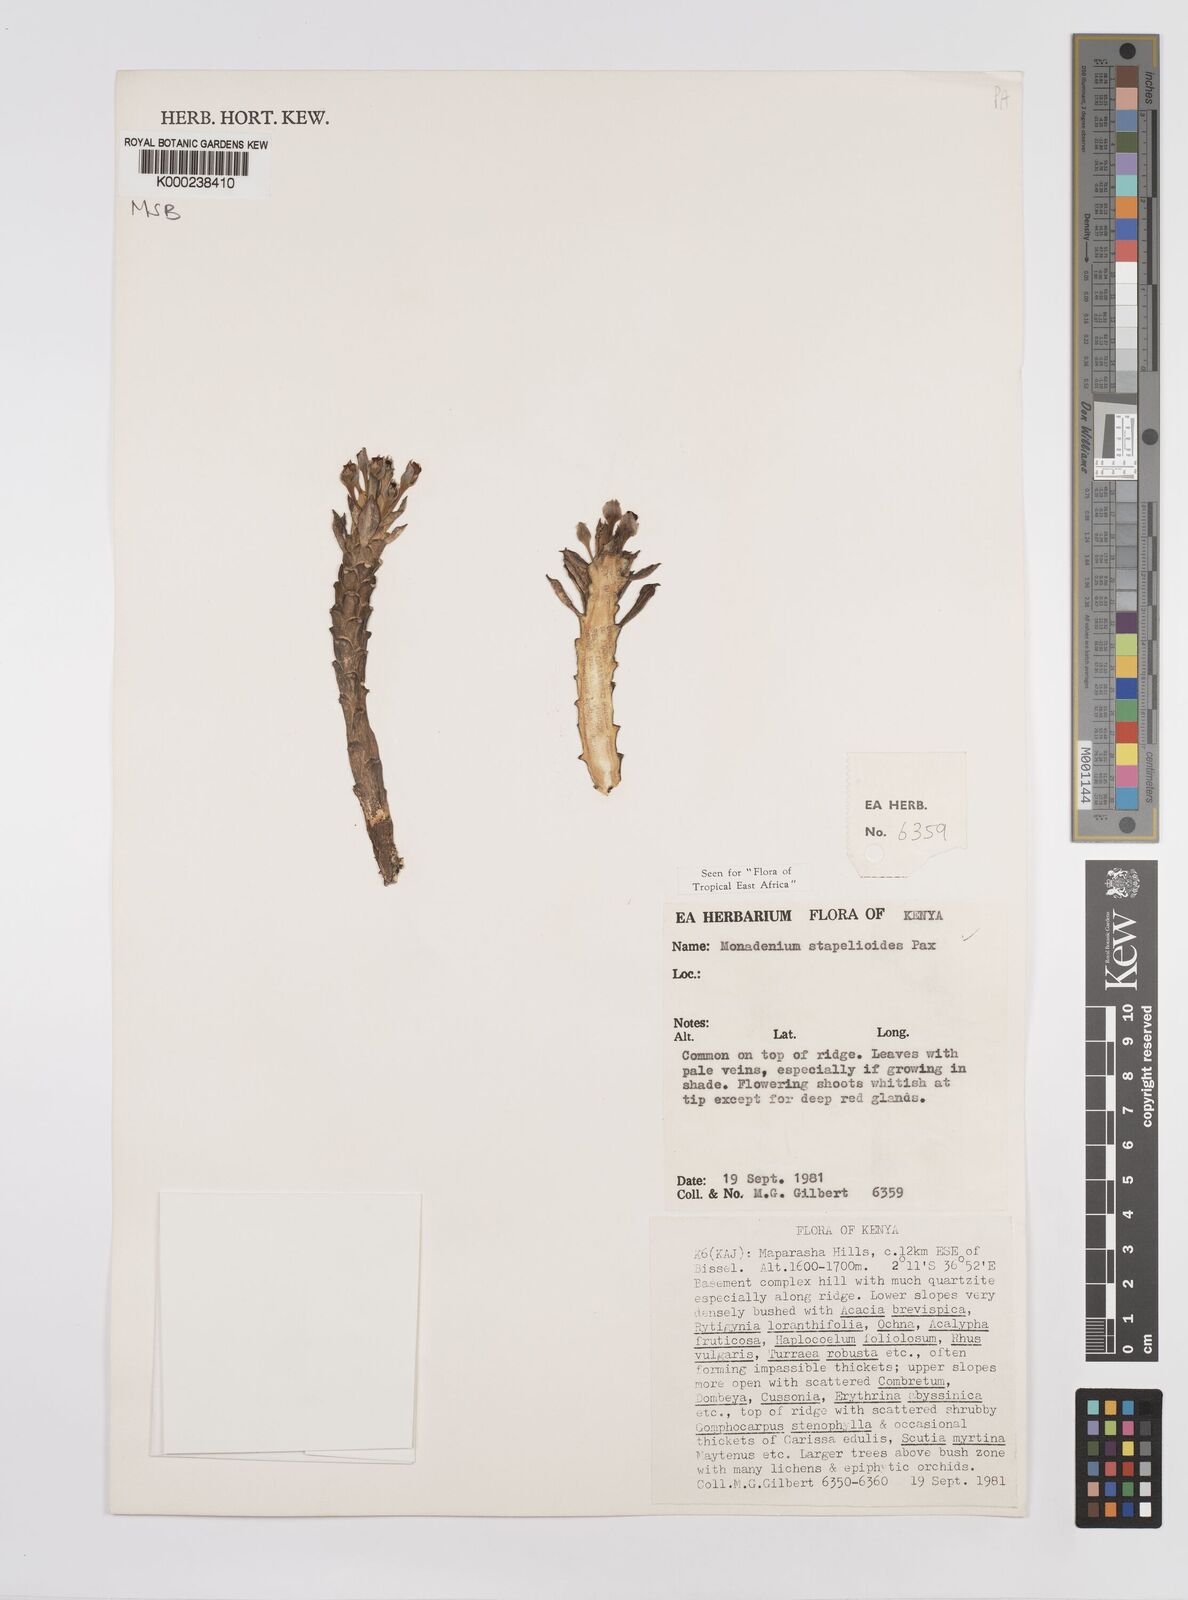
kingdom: Plantae
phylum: Tracheophyta
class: Magnoliopsida
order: Malpighiales
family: Euphorbiaceae
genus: Euphorbia
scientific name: Euphorbia succulenta
